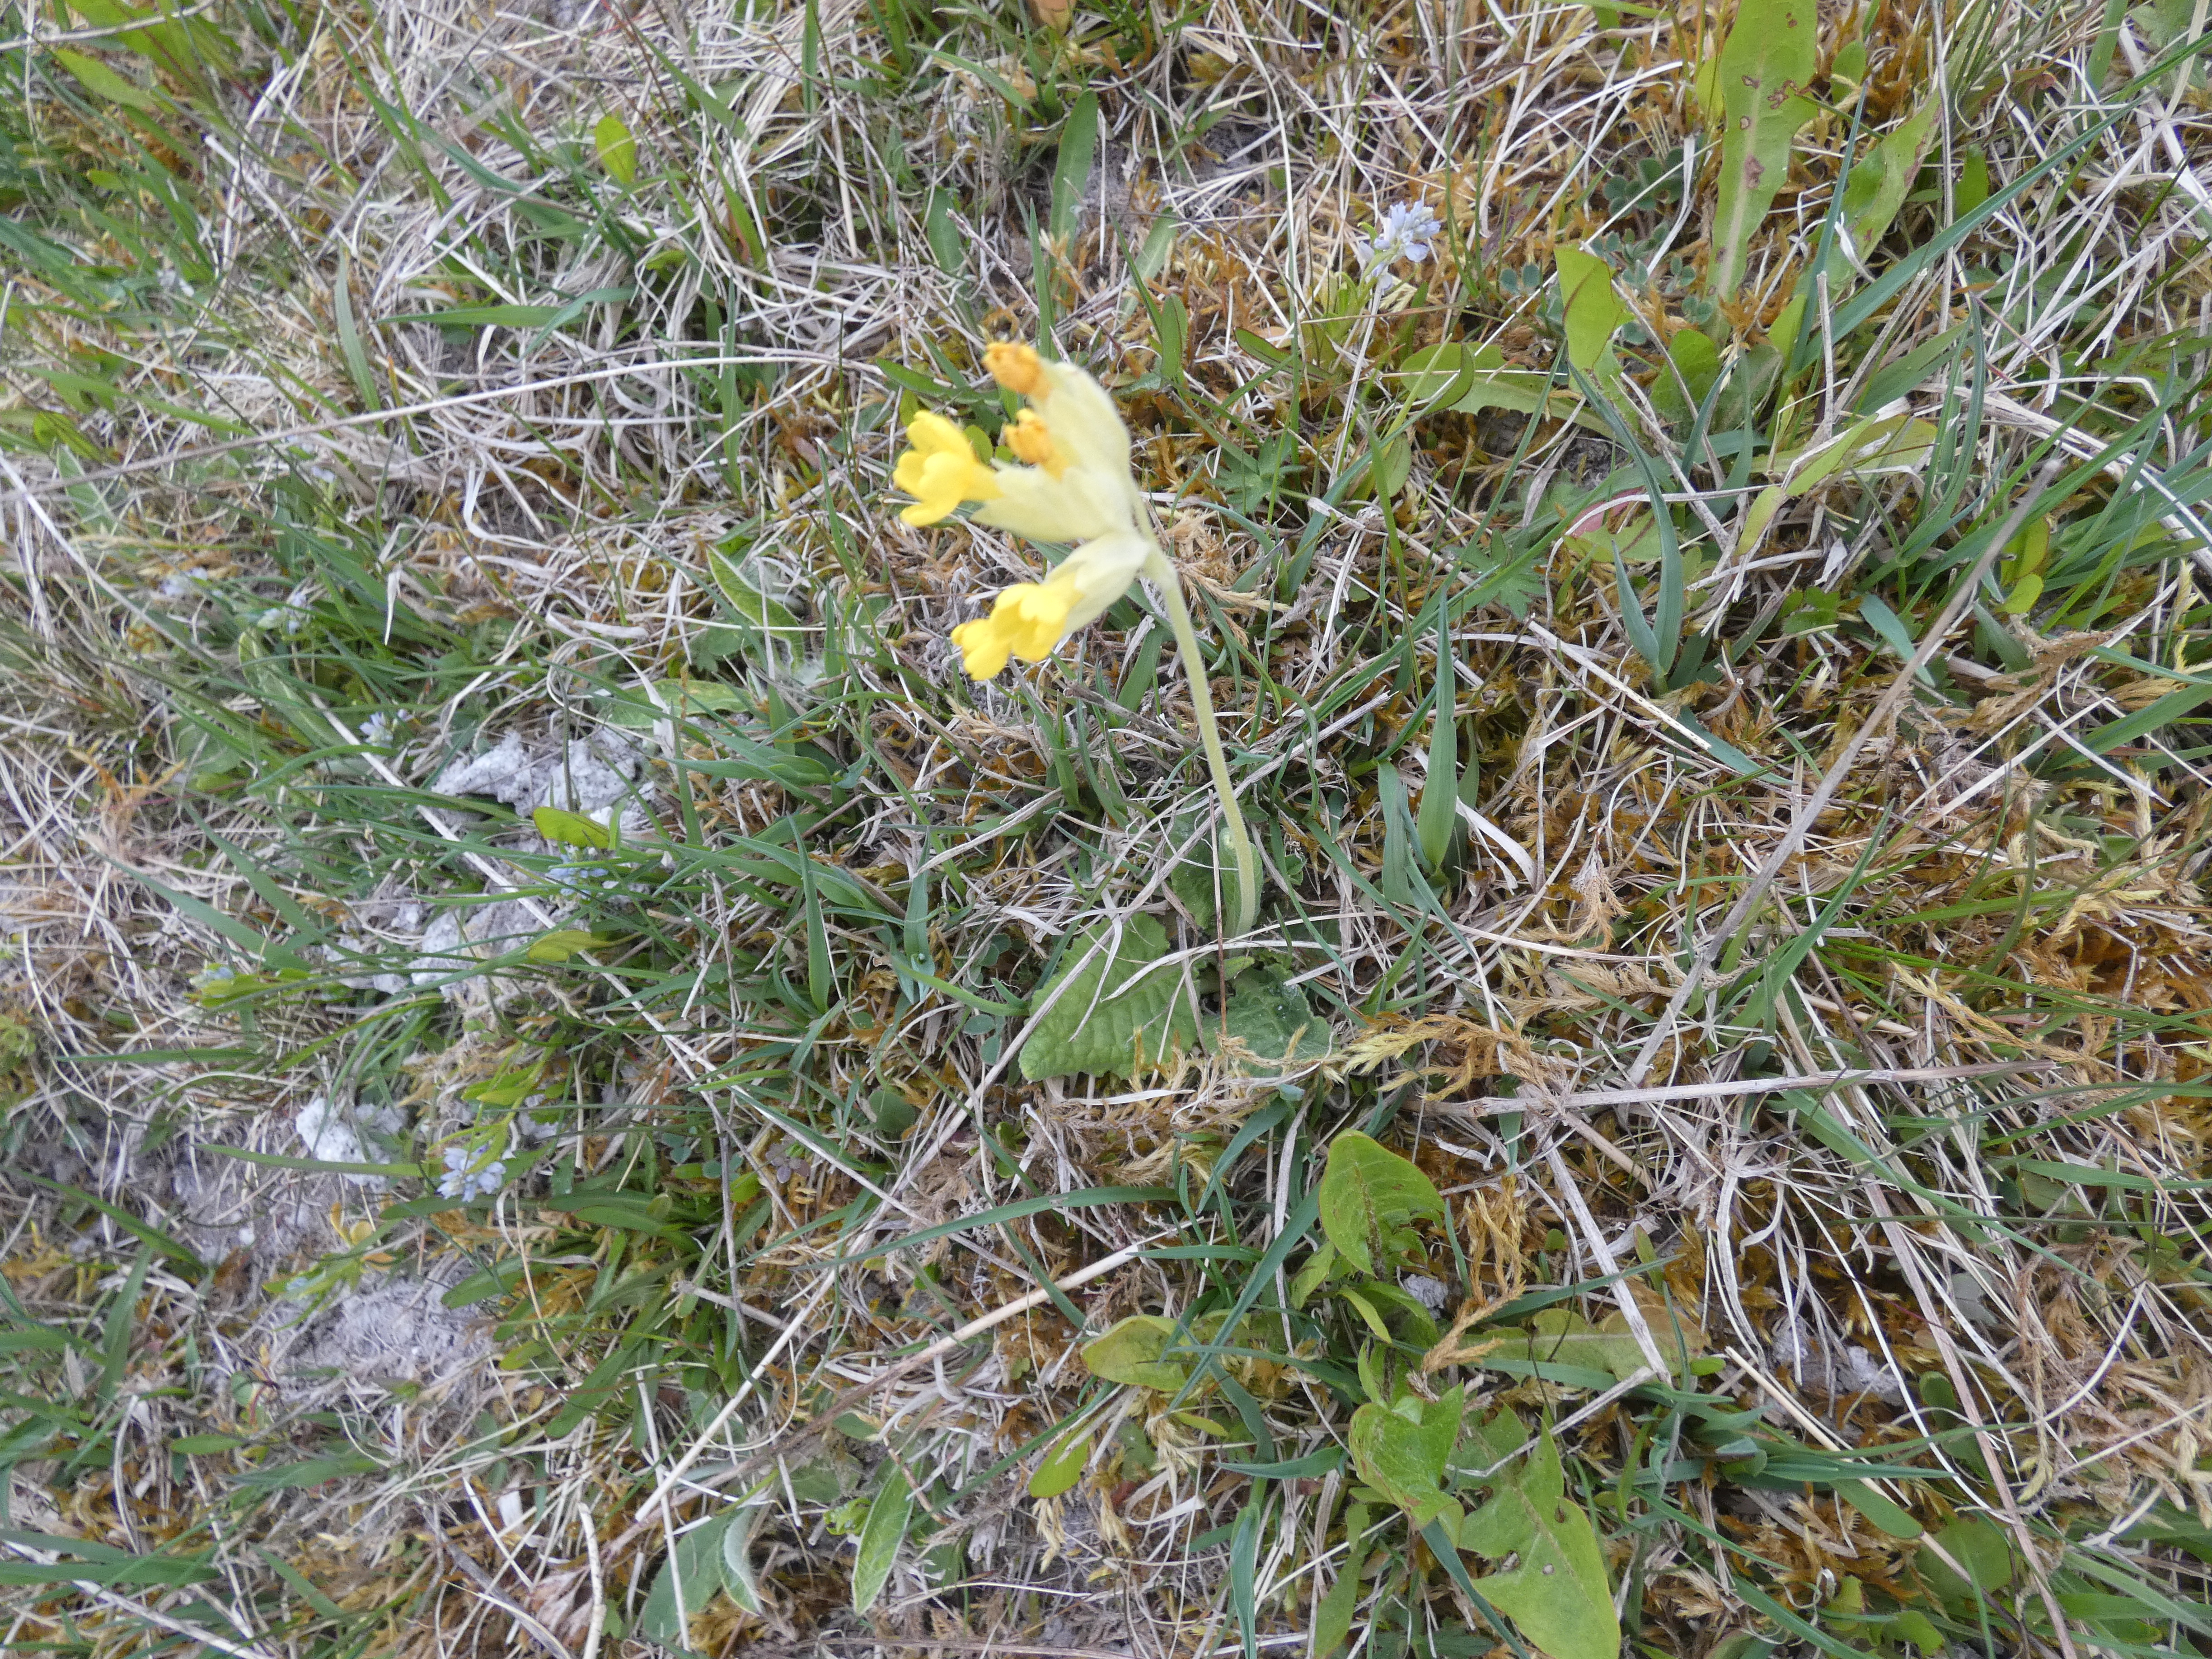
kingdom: Plantae
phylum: Tracheophyta
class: Magnoliopsida
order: Ericales
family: Primulaceae
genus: Primula
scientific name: Primula veris
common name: Hulkravet kodriver
